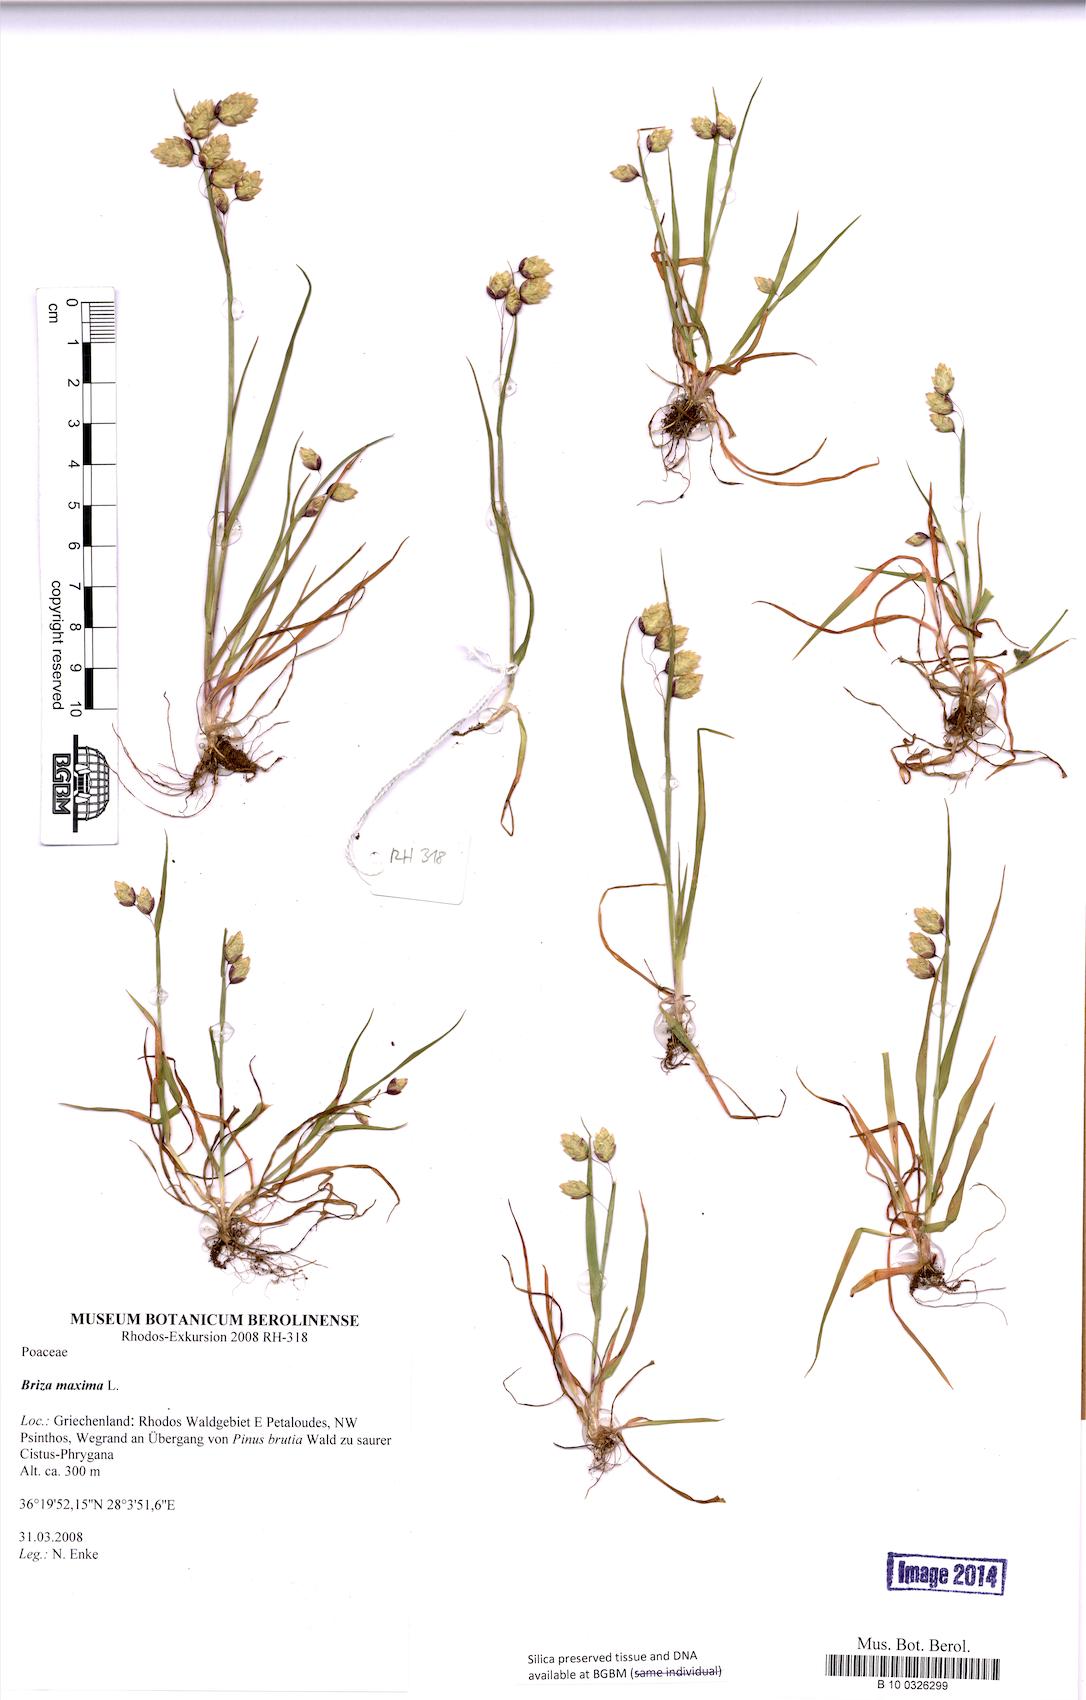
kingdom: Plantae
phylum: Tracheophyta
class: Liliopsida
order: Poales
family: Poaceae
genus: Briza
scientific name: Briza maxima
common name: Big quakinggrass
